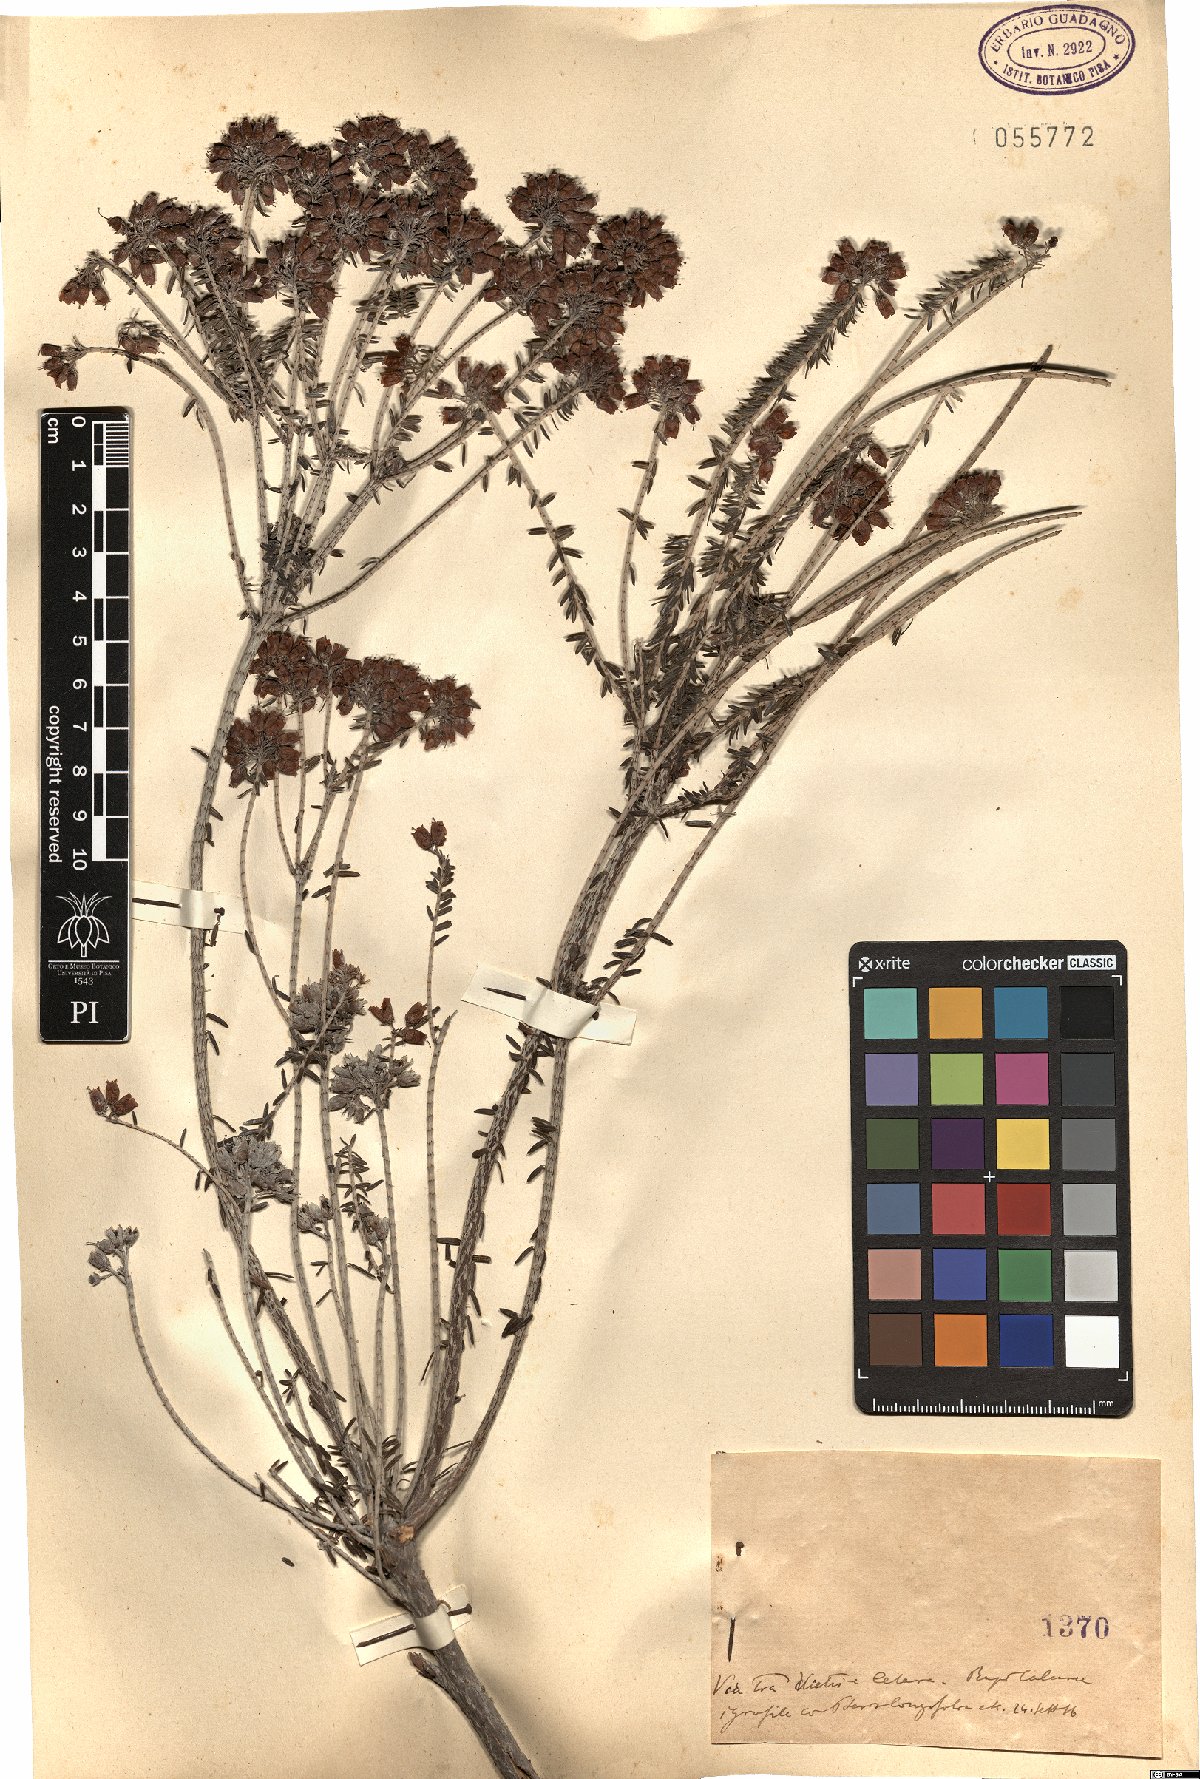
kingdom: Plantae
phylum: Tracheophyta
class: Magnoliopsida
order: Ericales
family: Ericaceae
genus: Erica
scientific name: Erica
